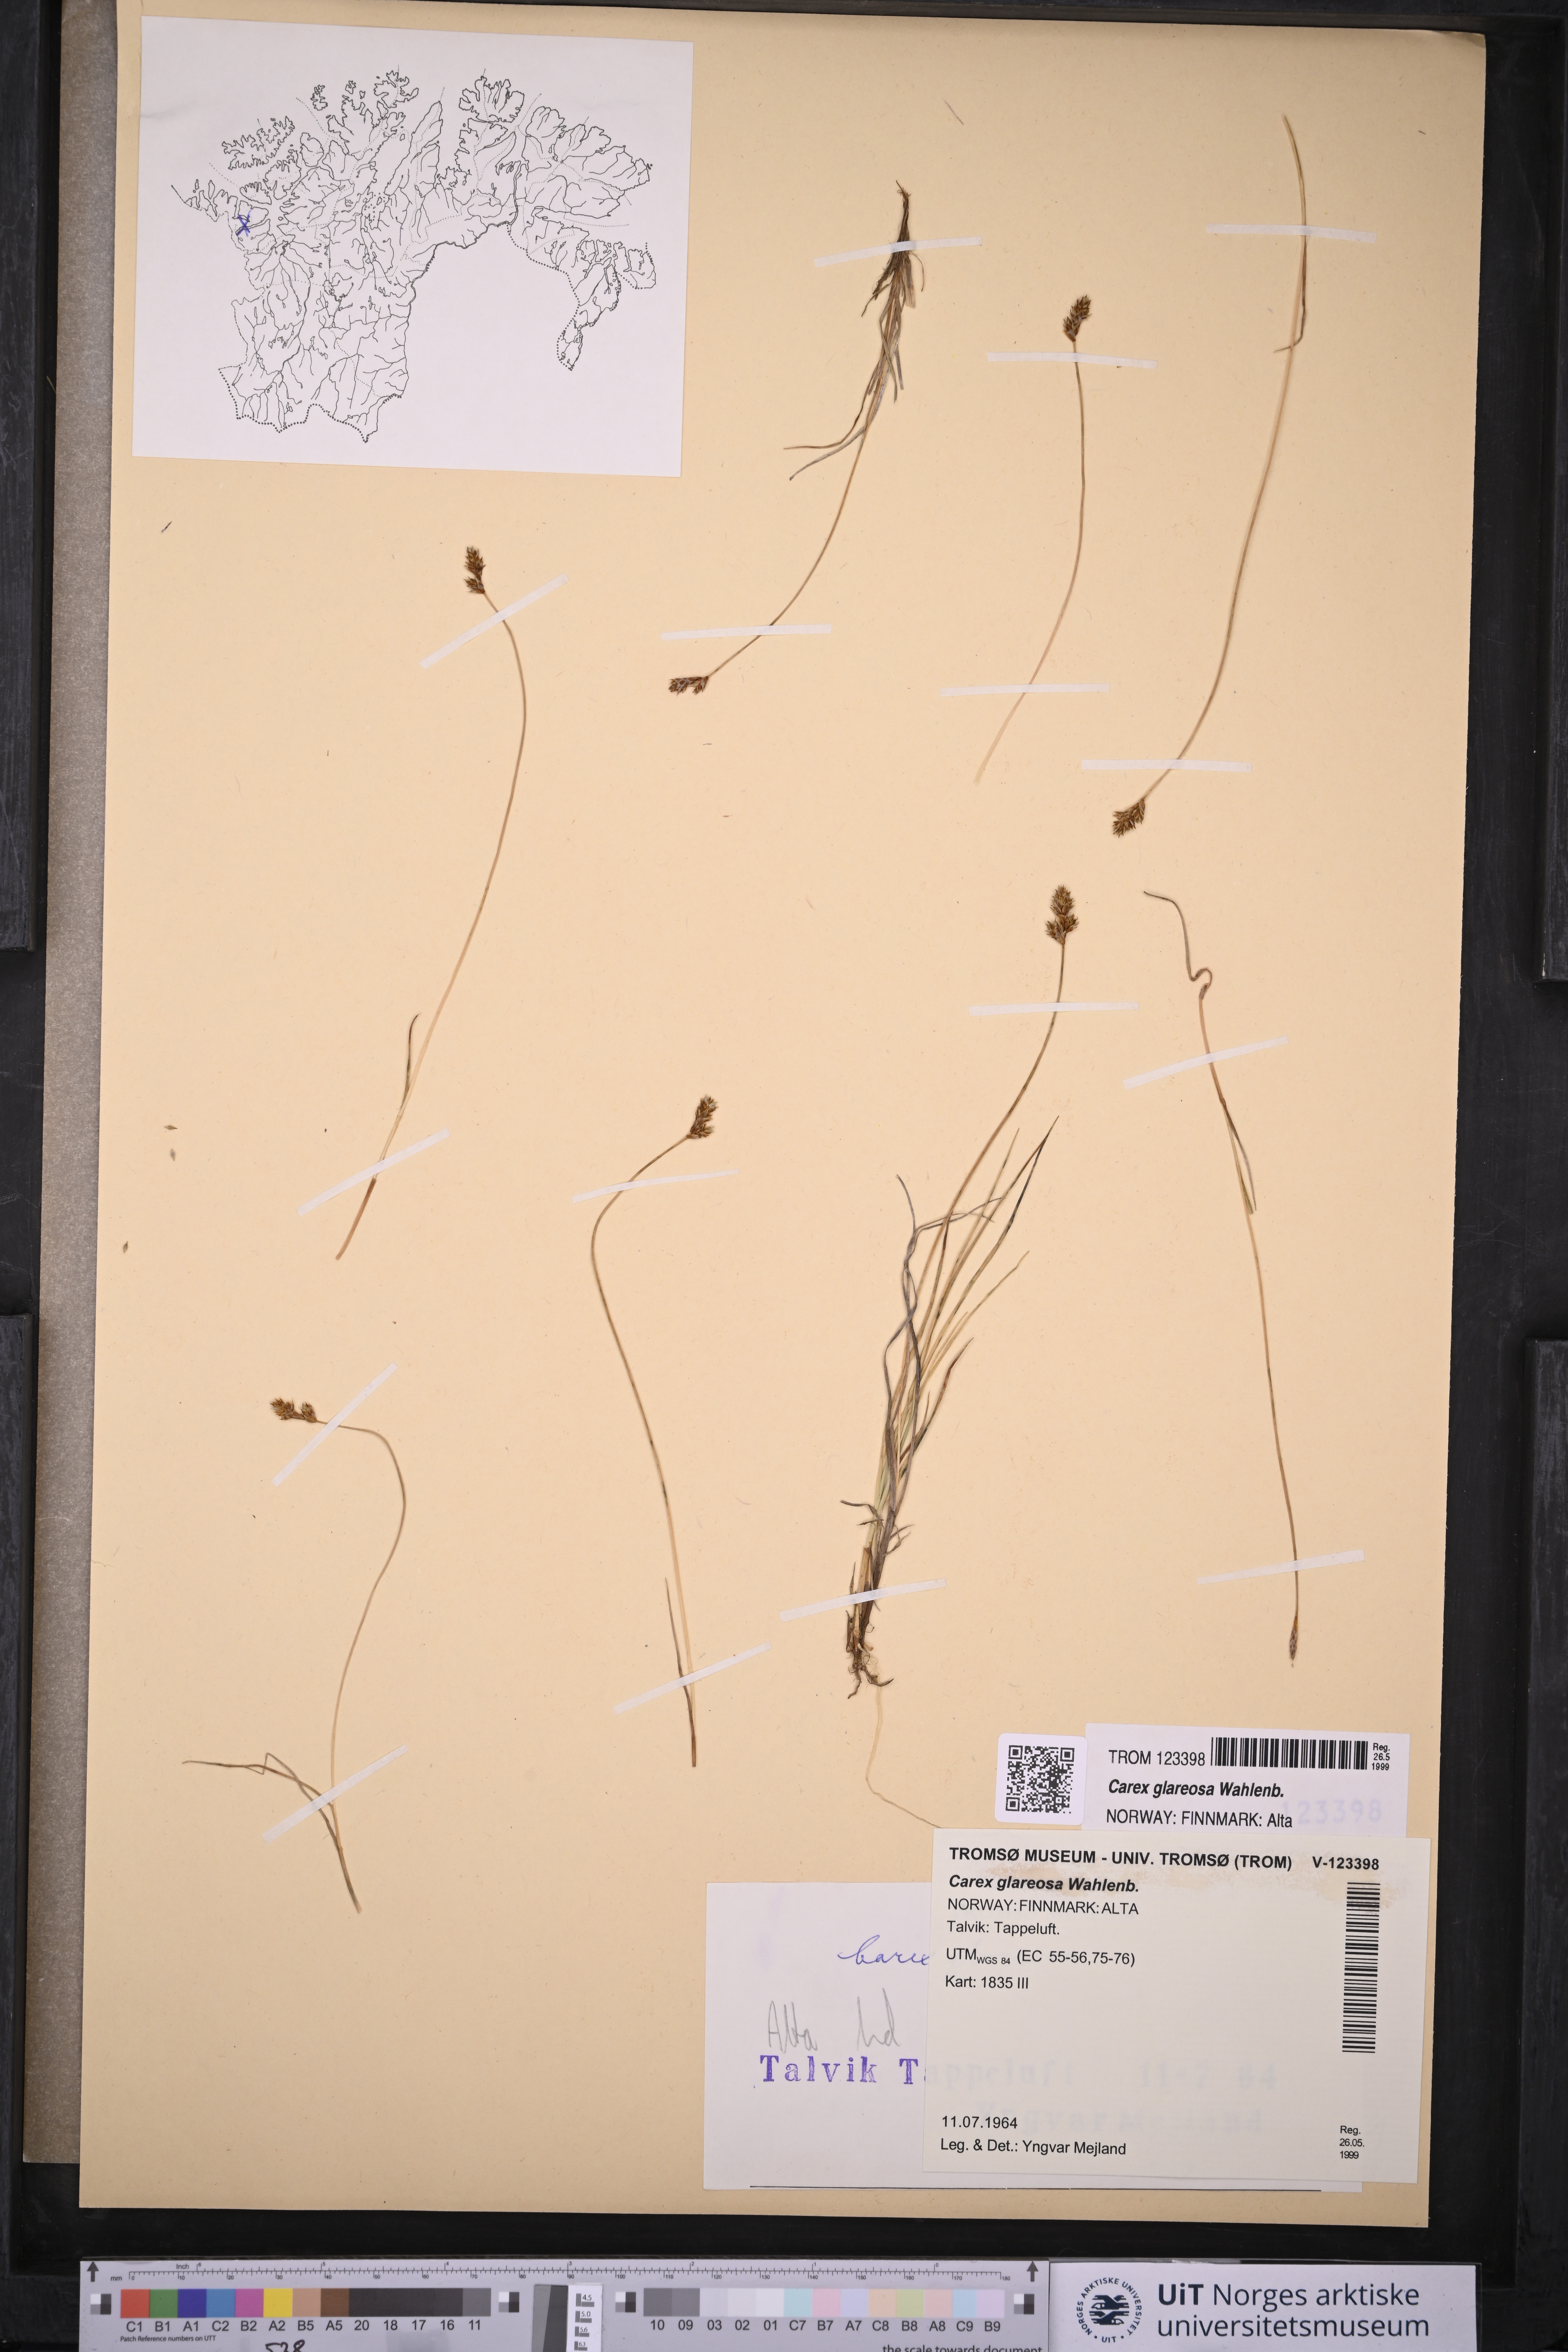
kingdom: Plantae
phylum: Tracheophyta
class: Liliopsida
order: Poales
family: Cyperaceae
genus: Carex
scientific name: Carex glareosa
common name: Clustered sedge
